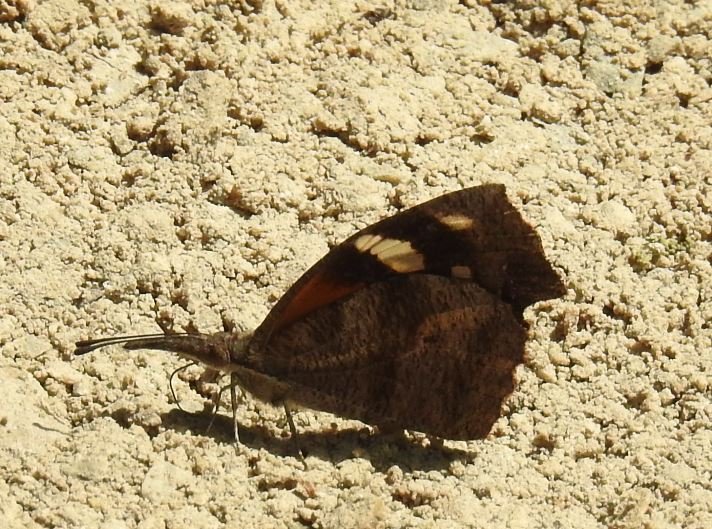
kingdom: Animalia
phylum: Arthropoda
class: Insecta
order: Lepidoptera
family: Nymphalidae
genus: Libytheana
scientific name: Libytheana carinenta
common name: American Snout
